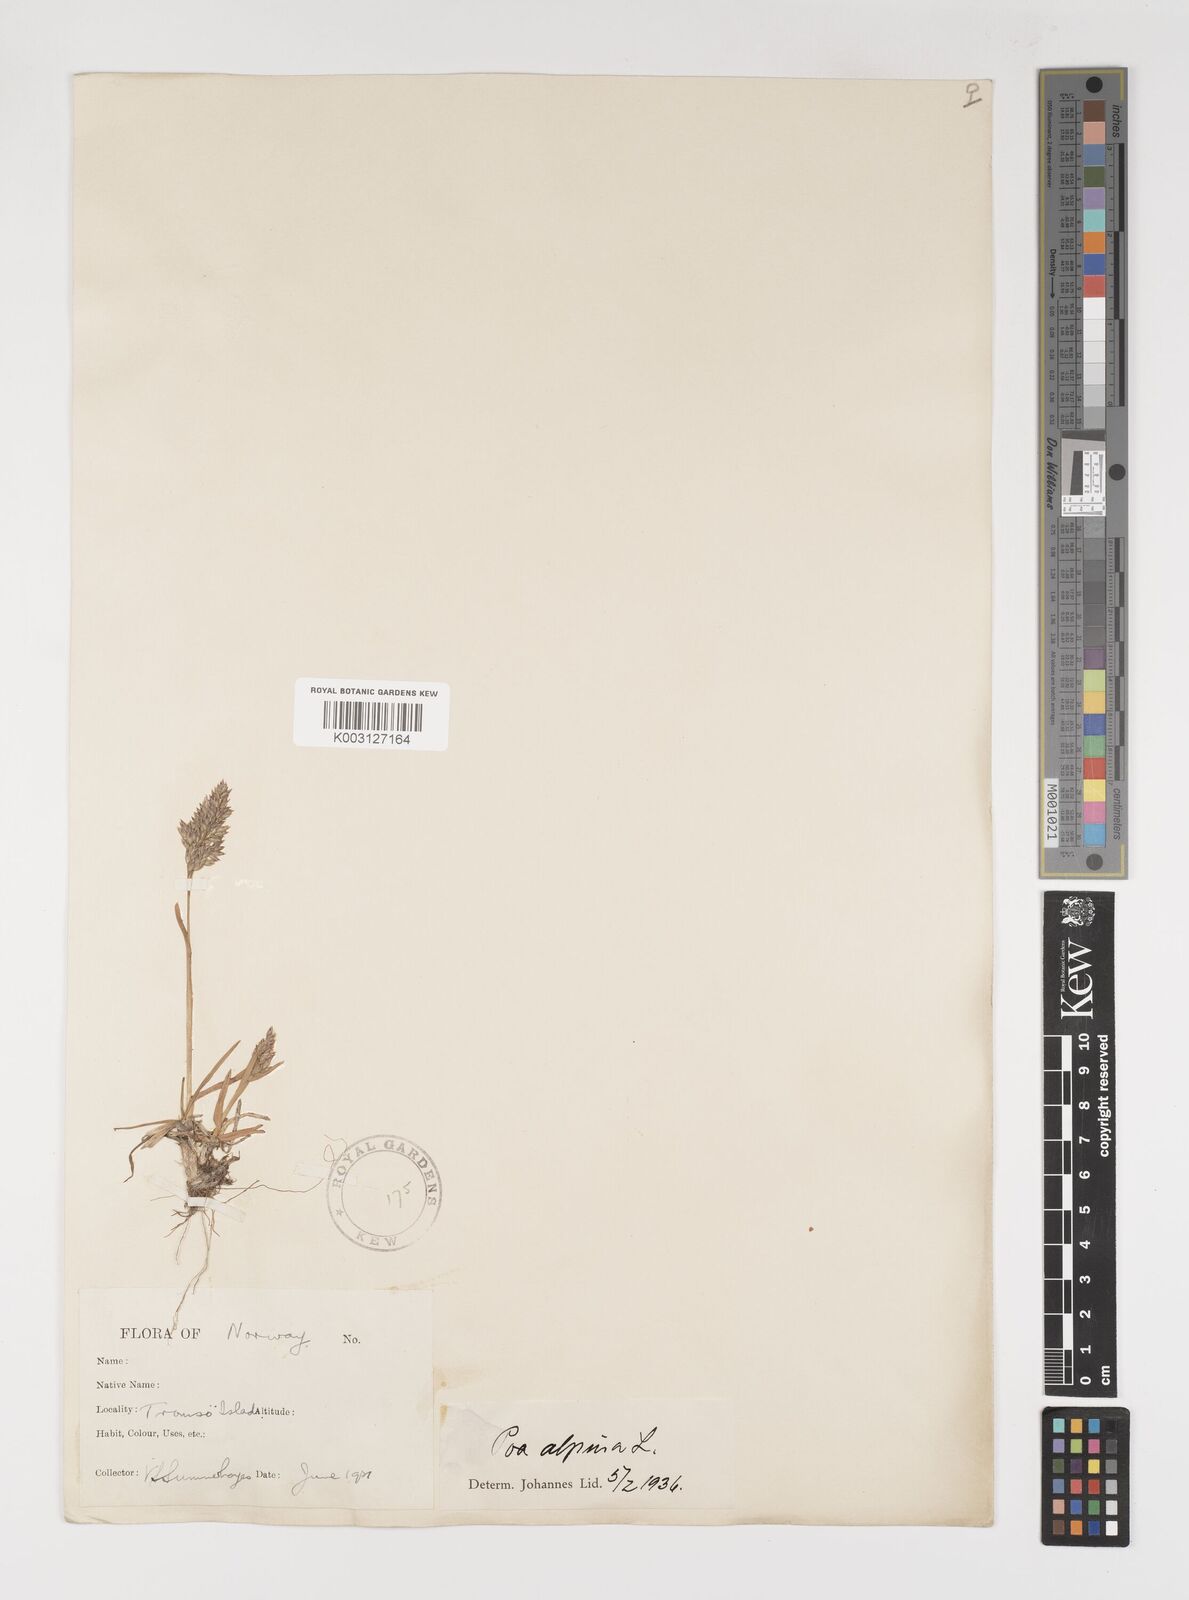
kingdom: Plantae
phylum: Tracheophyta
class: Liliopsida
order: Poales
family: Poaceae
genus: Poa
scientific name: Poa alpina
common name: Alpine bluegrass
